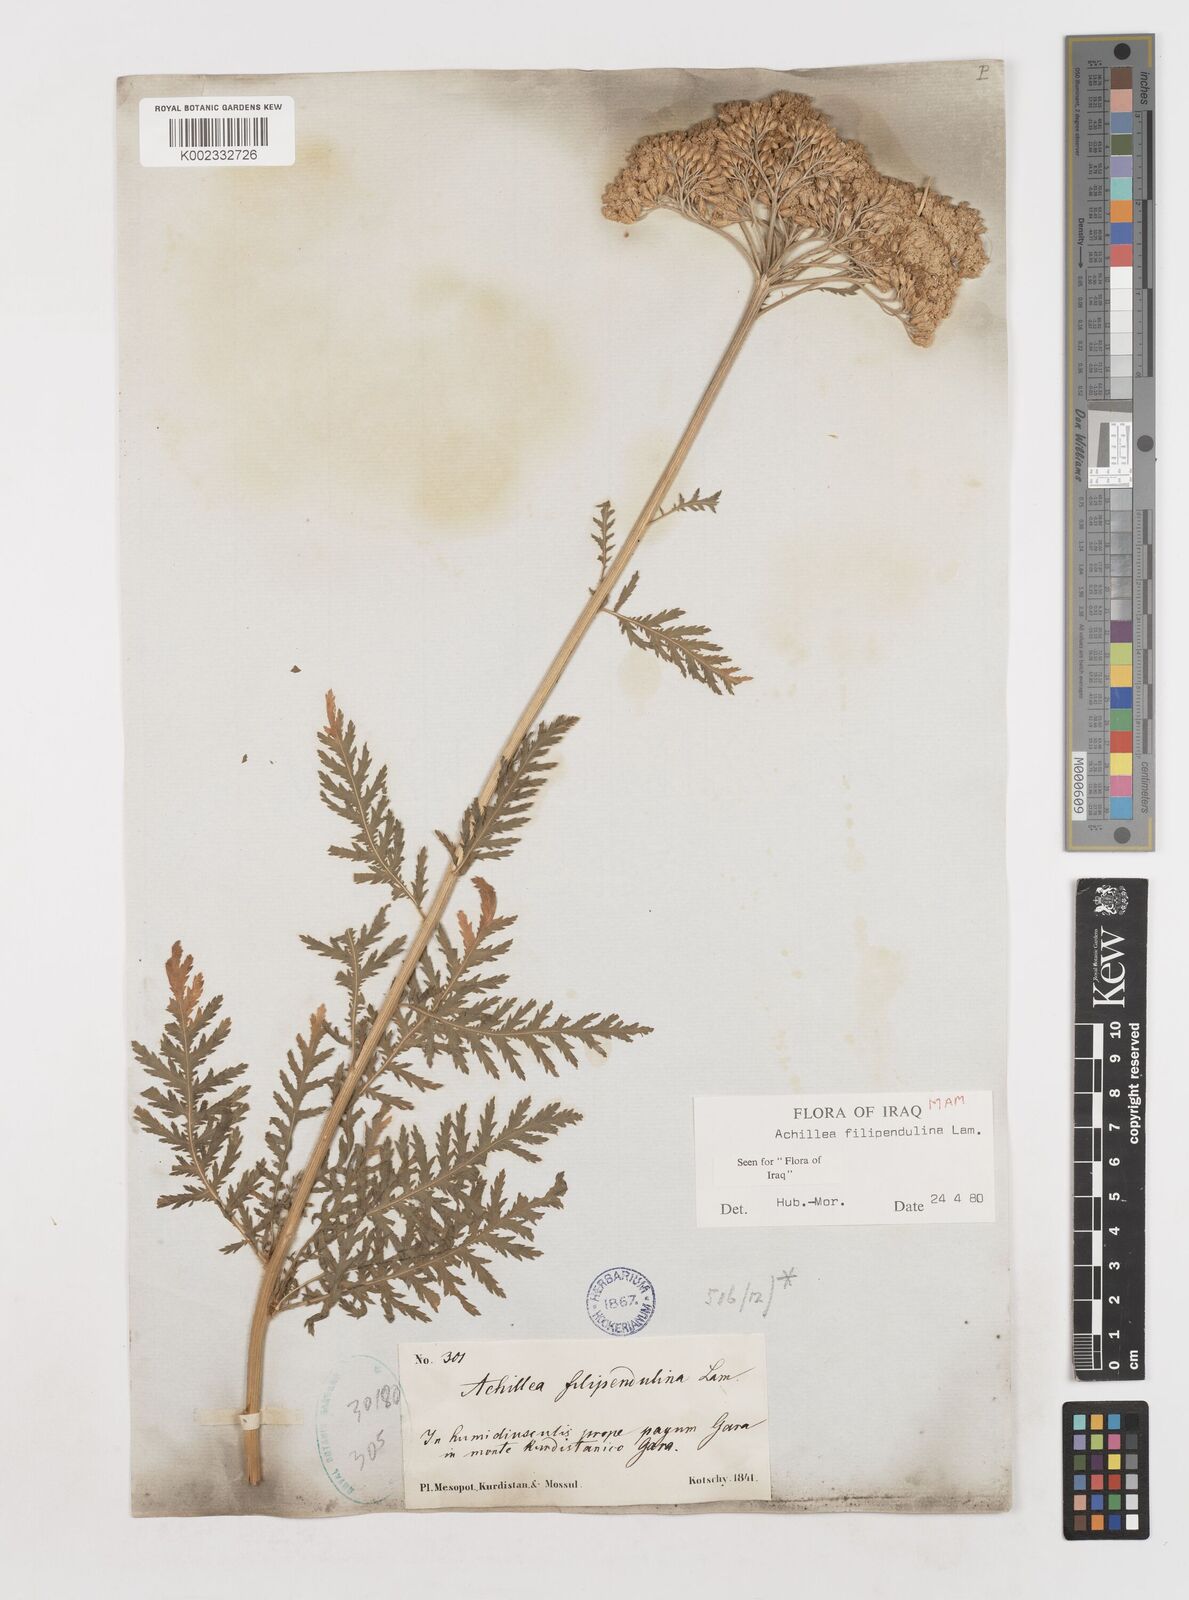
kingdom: Plantae
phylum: Tracheophyta
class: Magnoliopsida
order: Asterales
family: Asteraceae
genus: Achillea
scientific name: Achillea filipendulina
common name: Fernleaf yarrow
